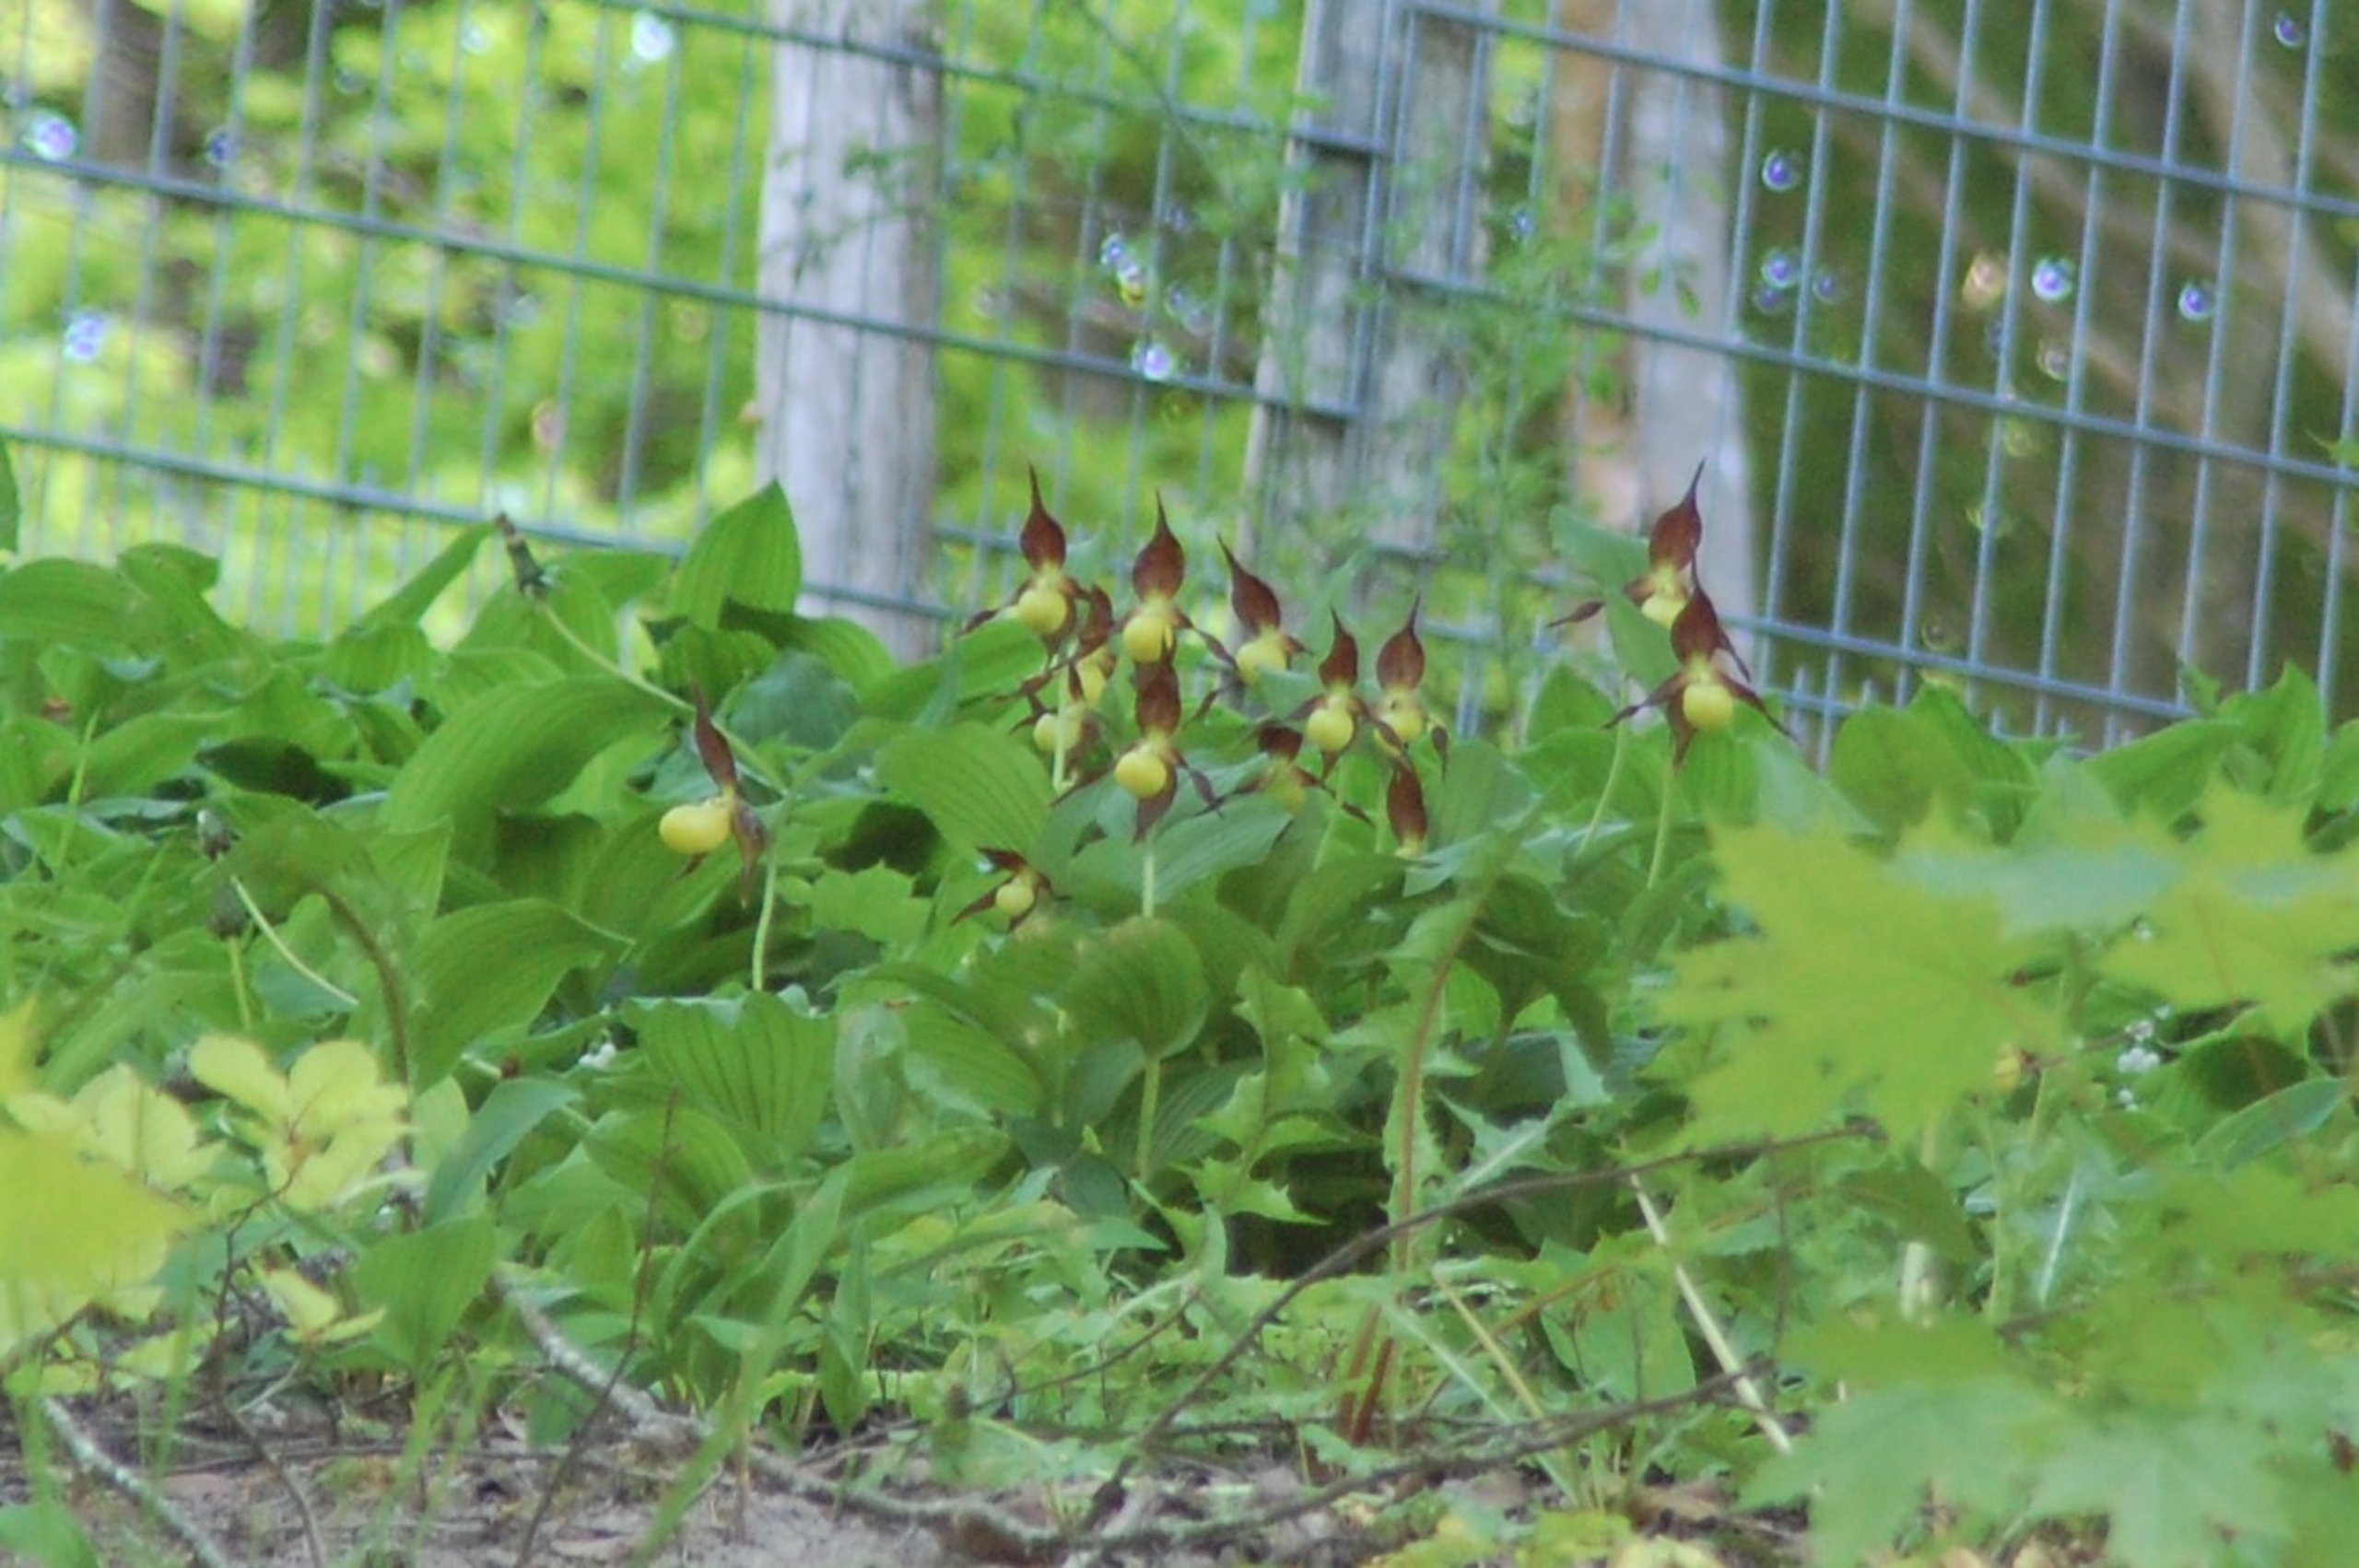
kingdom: Plantae
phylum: Tracheophyta
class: Liliopsida
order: Asparagales
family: Orchidaceae
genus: Cypripedium
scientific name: Cypripedium calceolus
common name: Fruesko
